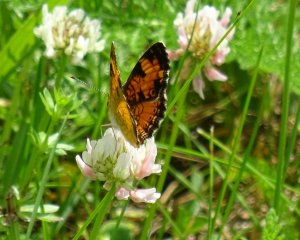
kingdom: Animalia
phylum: Arthropoda
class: Insecta
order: Lepidoptera
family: Nymphalidae
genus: Phyciodes
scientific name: Phyciodes tharos
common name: Northern Crescent
